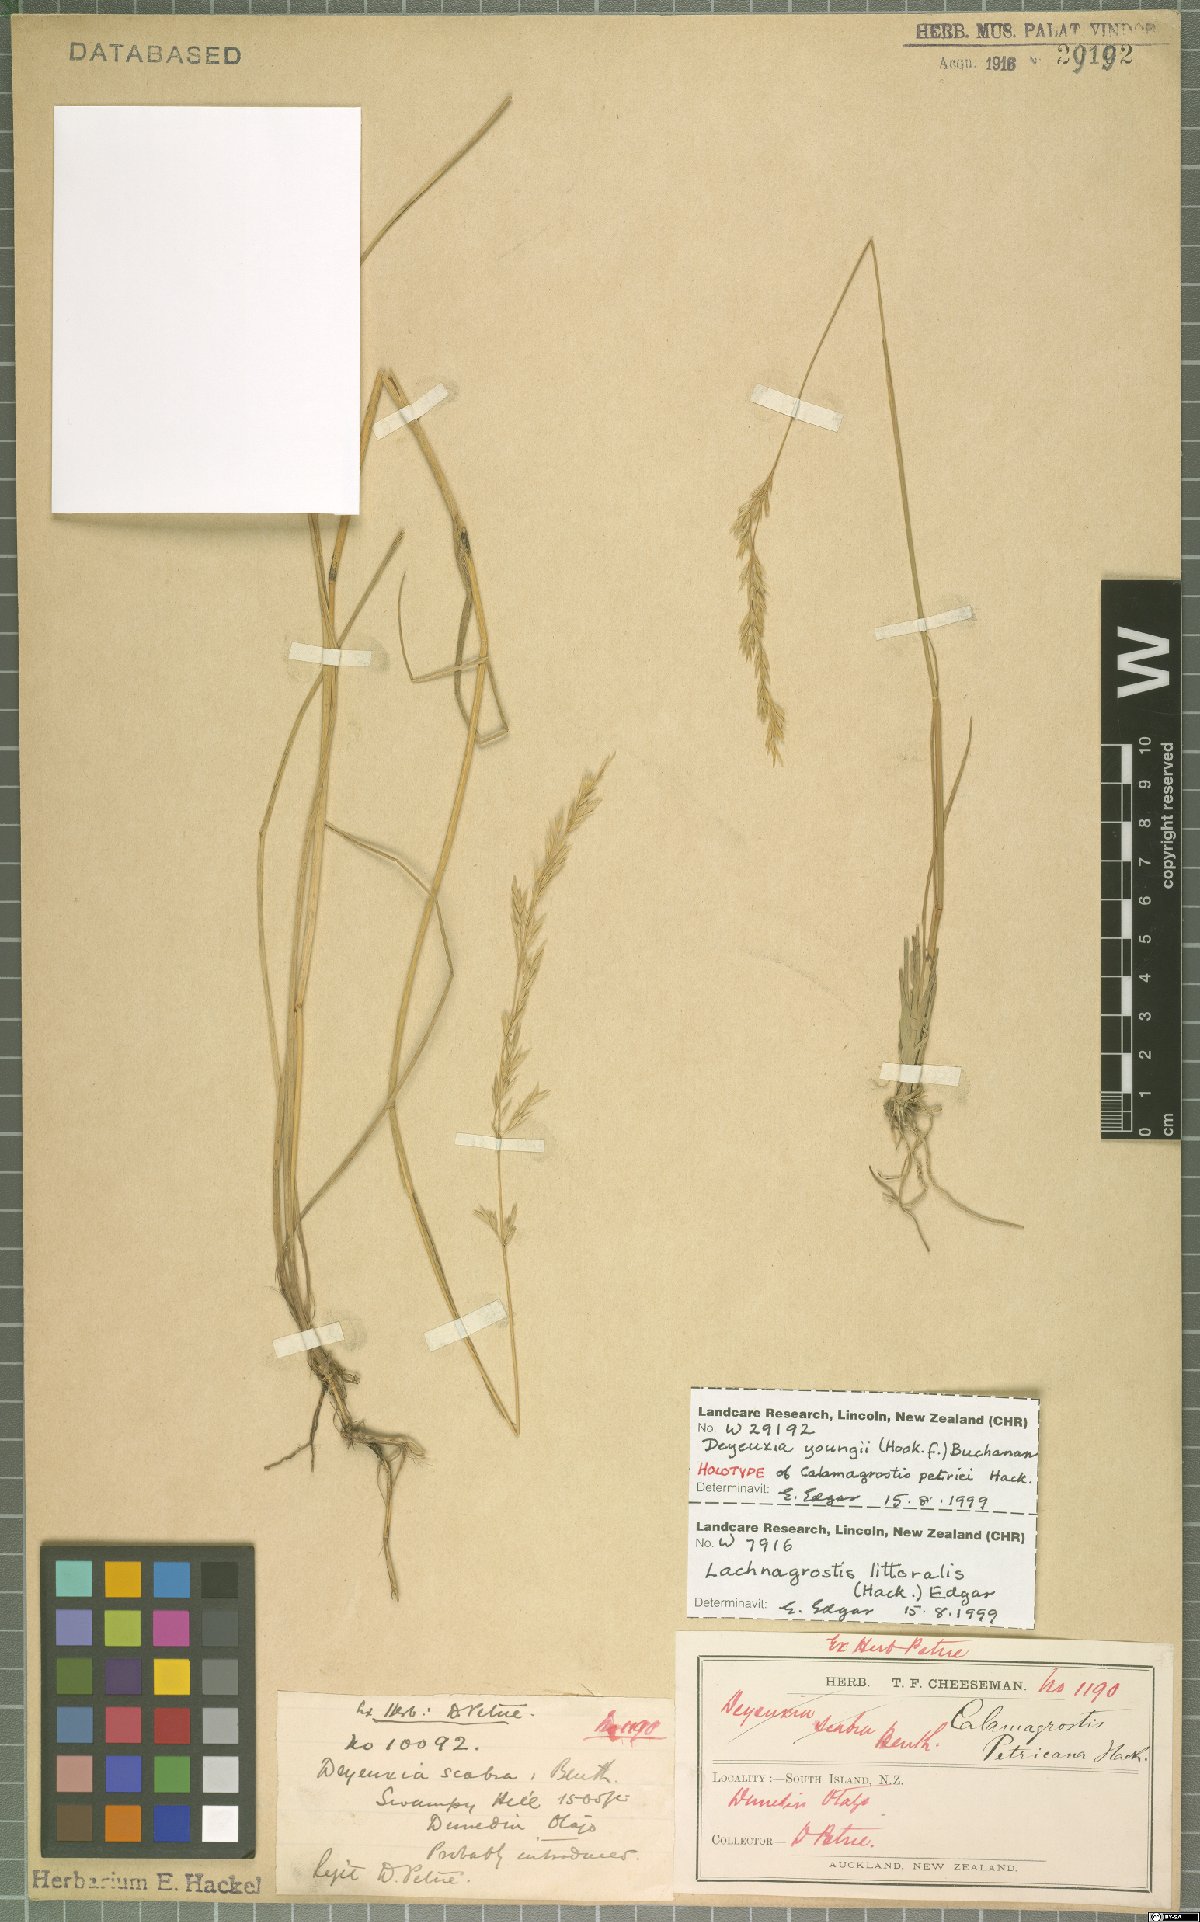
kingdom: Plantae
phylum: Tracheophyta
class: Liliopsida
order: Poales
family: Poaceae
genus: Calamagrostis
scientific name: Calamagrostis youngii
